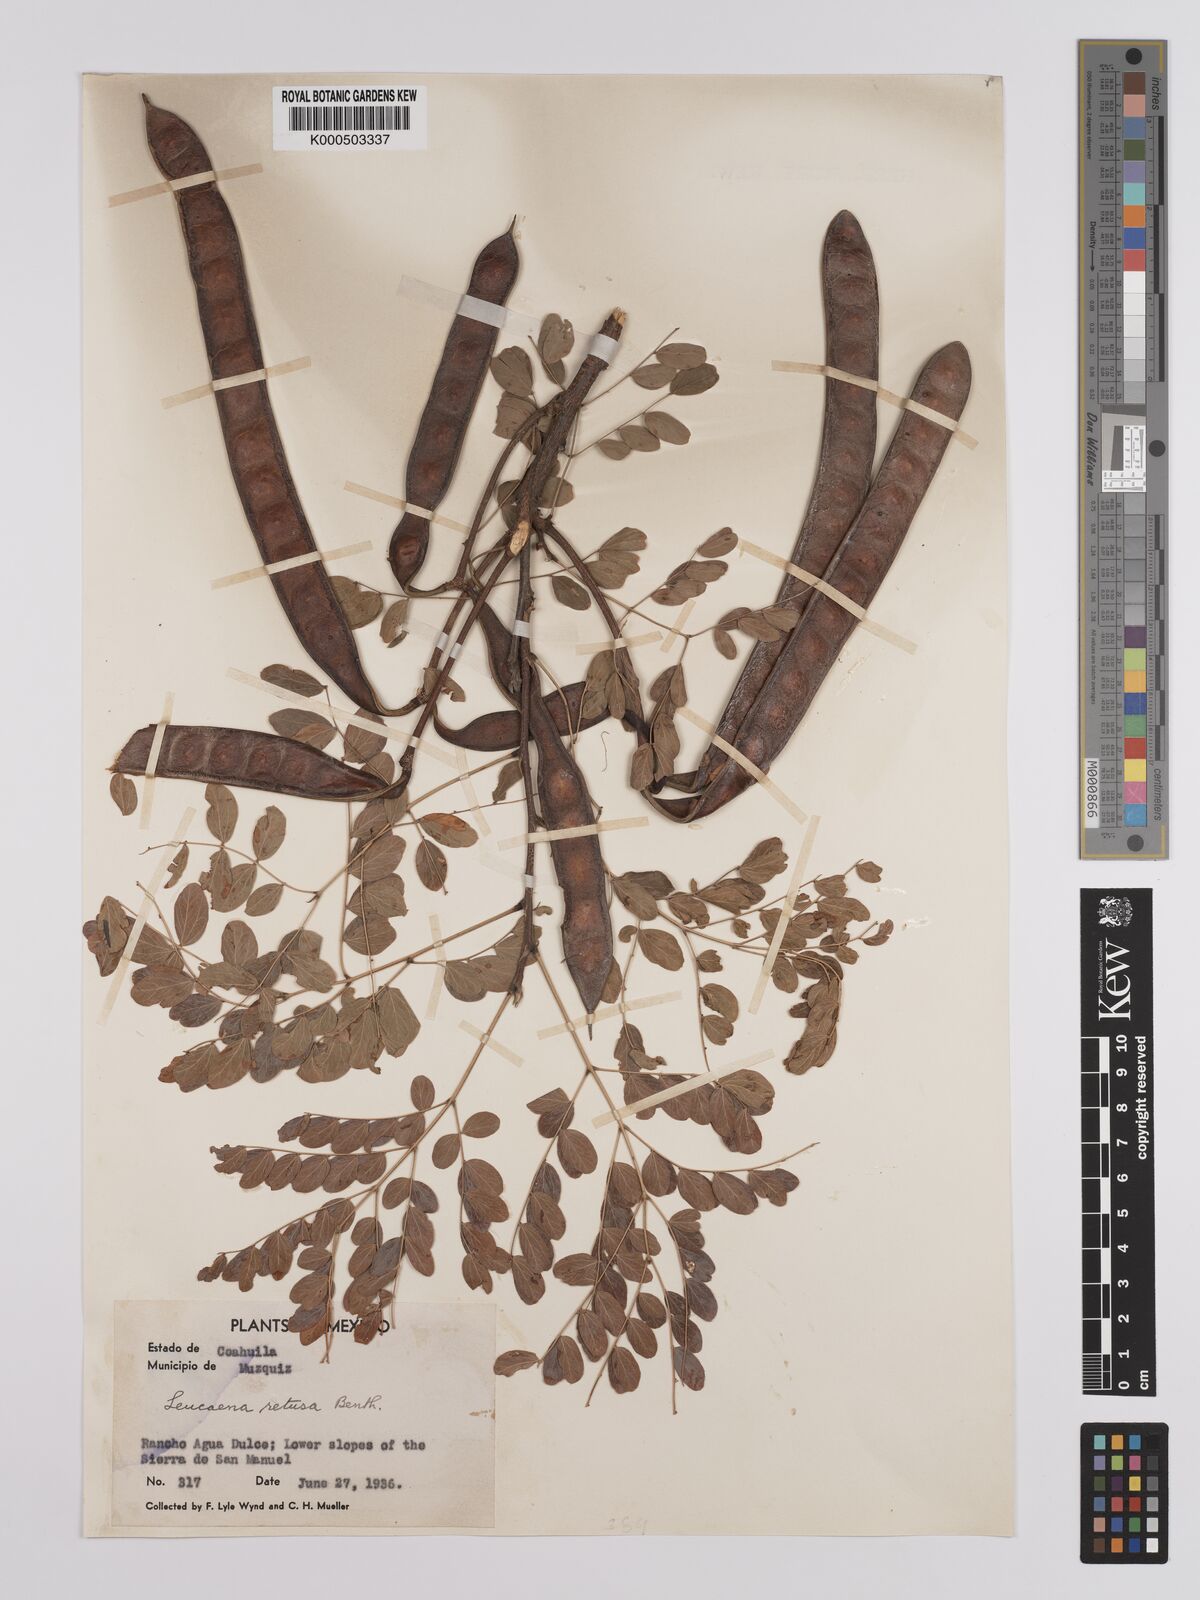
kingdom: Plantae
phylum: Tracheophyta
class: Magnoliopsida
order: Fabales
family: Fabaceae
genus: Leucaena
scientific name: Leucaena retusa
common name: Littleleaf leadtree
